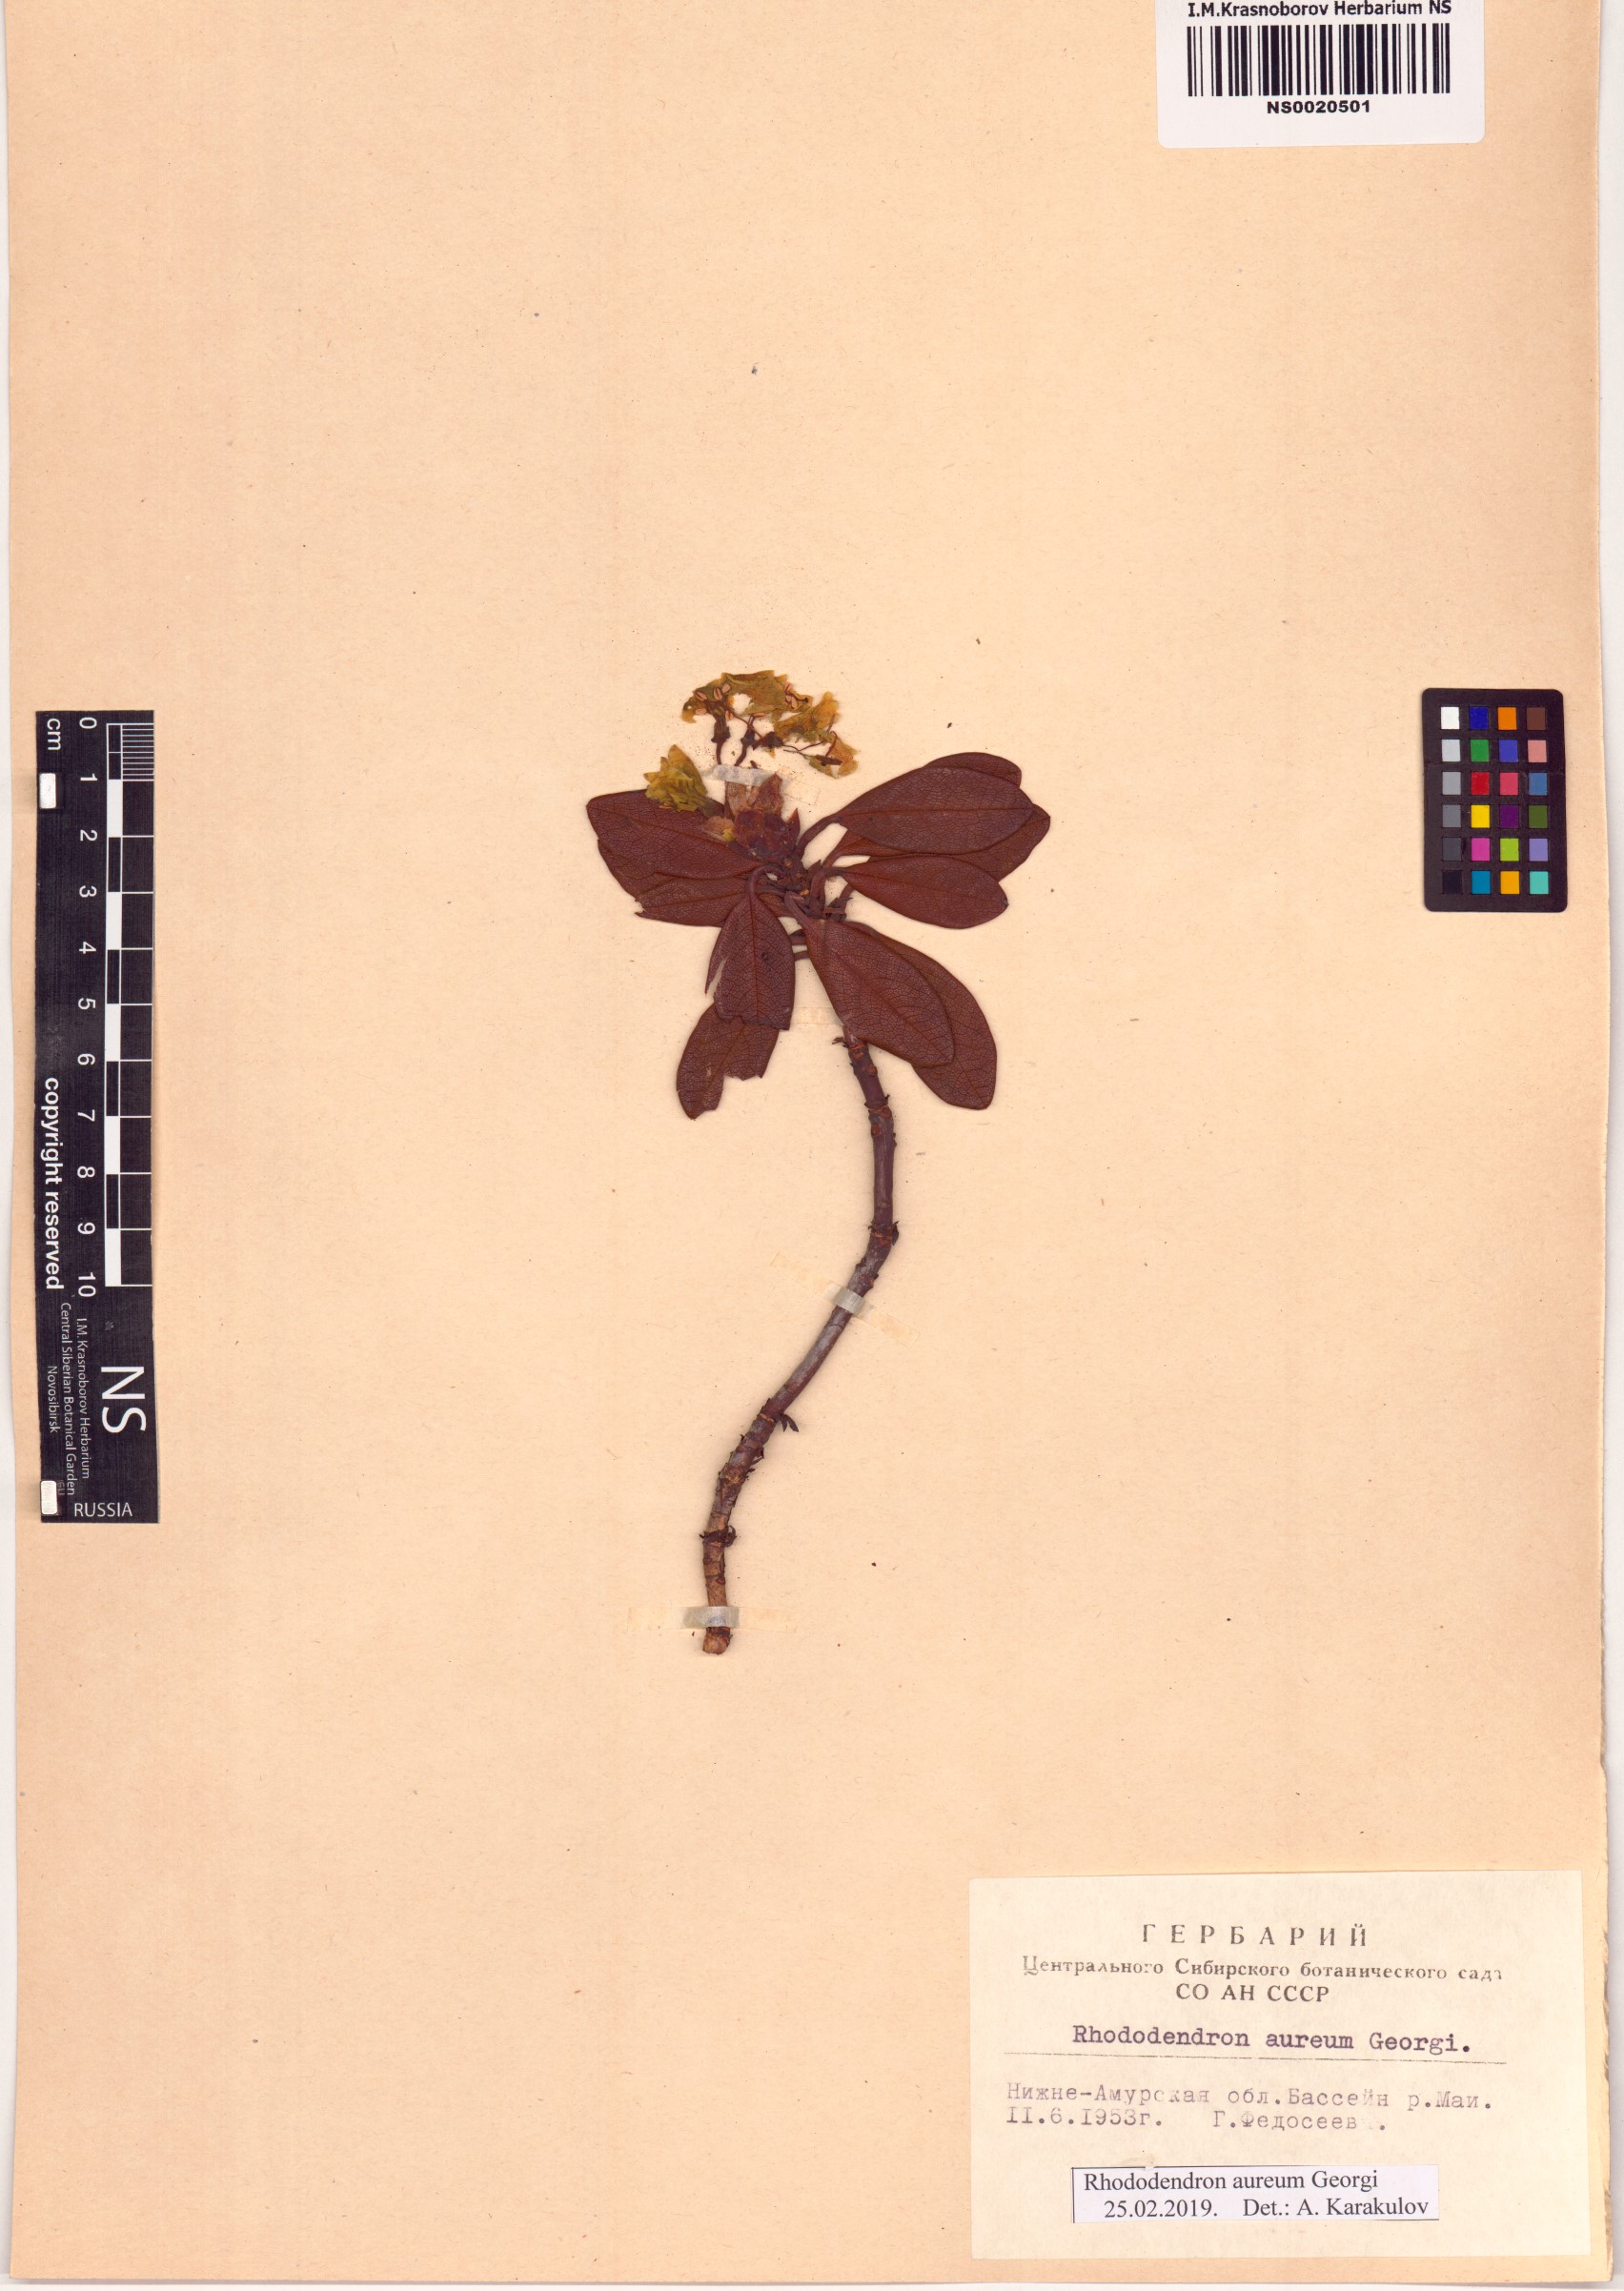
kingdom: Plantae
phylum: Tracheophyta
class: Magnoliopsida
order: Ericales
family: Ericaceae
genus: Rhododendron
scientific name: Rhododendron aureum
